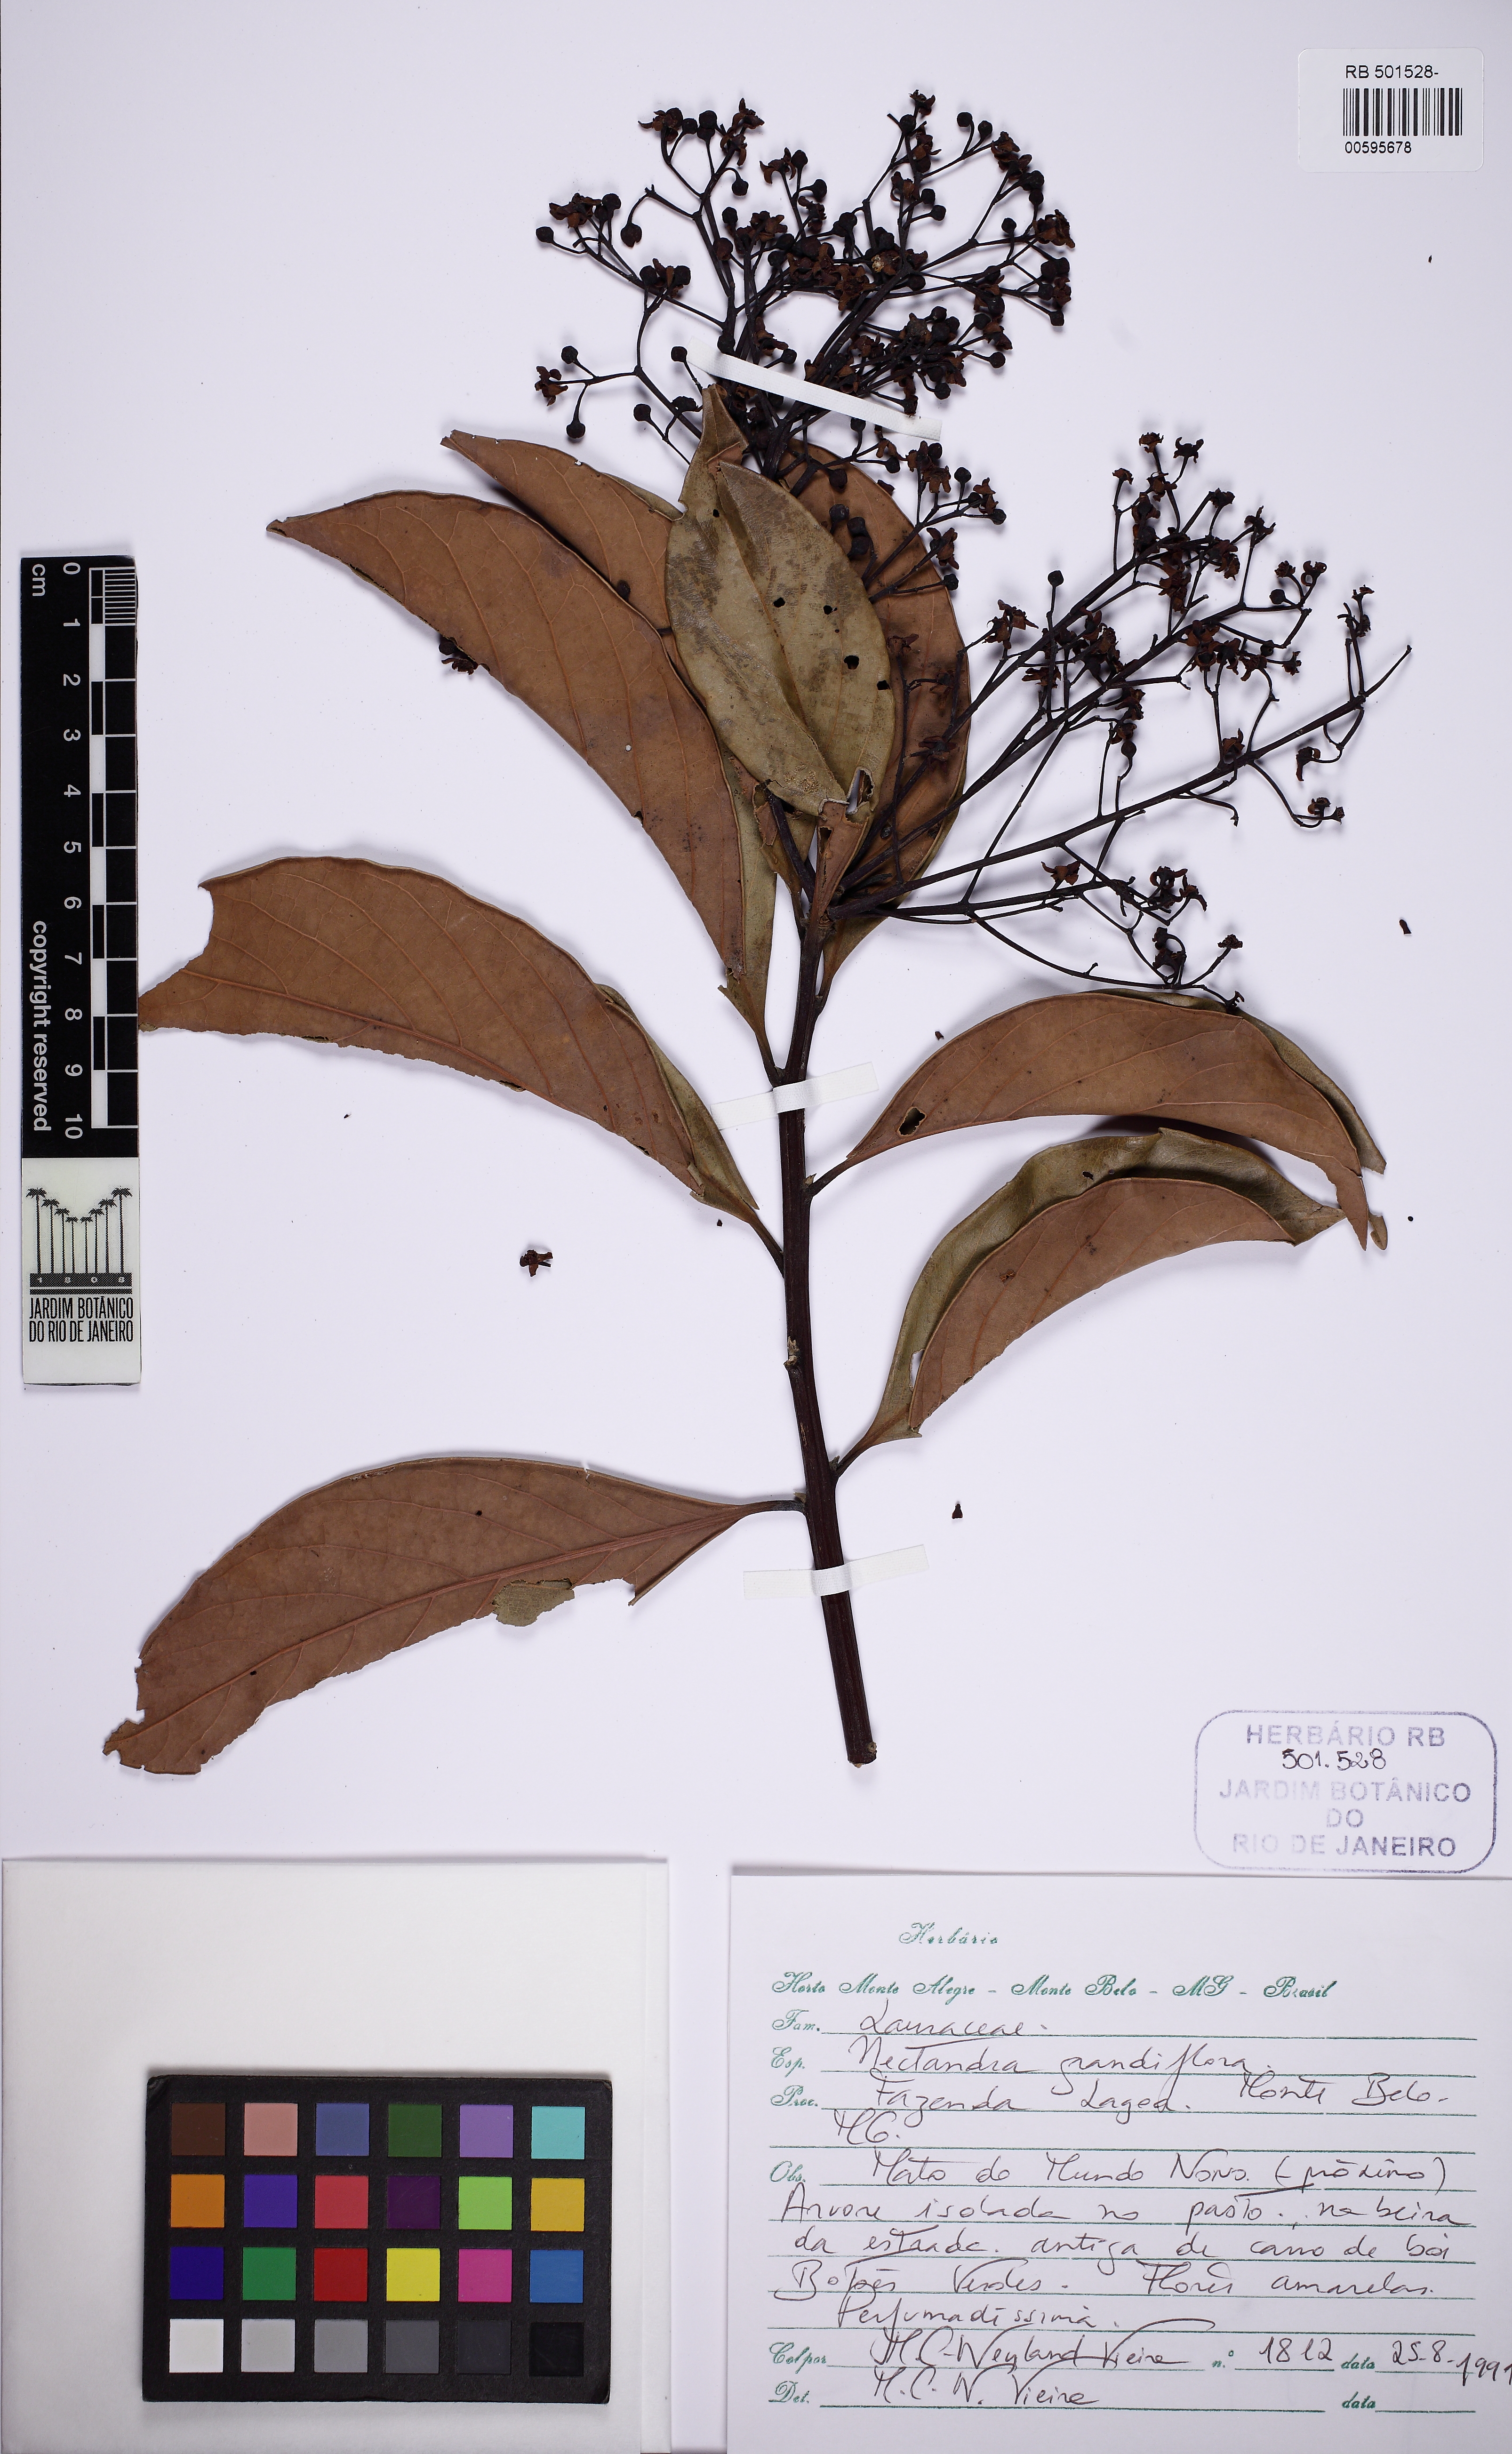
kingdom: Plantae
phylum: Tracheophyta
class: Magnoliopsida
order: Laurales
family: Lauraceae
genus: Nectandra
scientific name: Nectandra grandiflora
